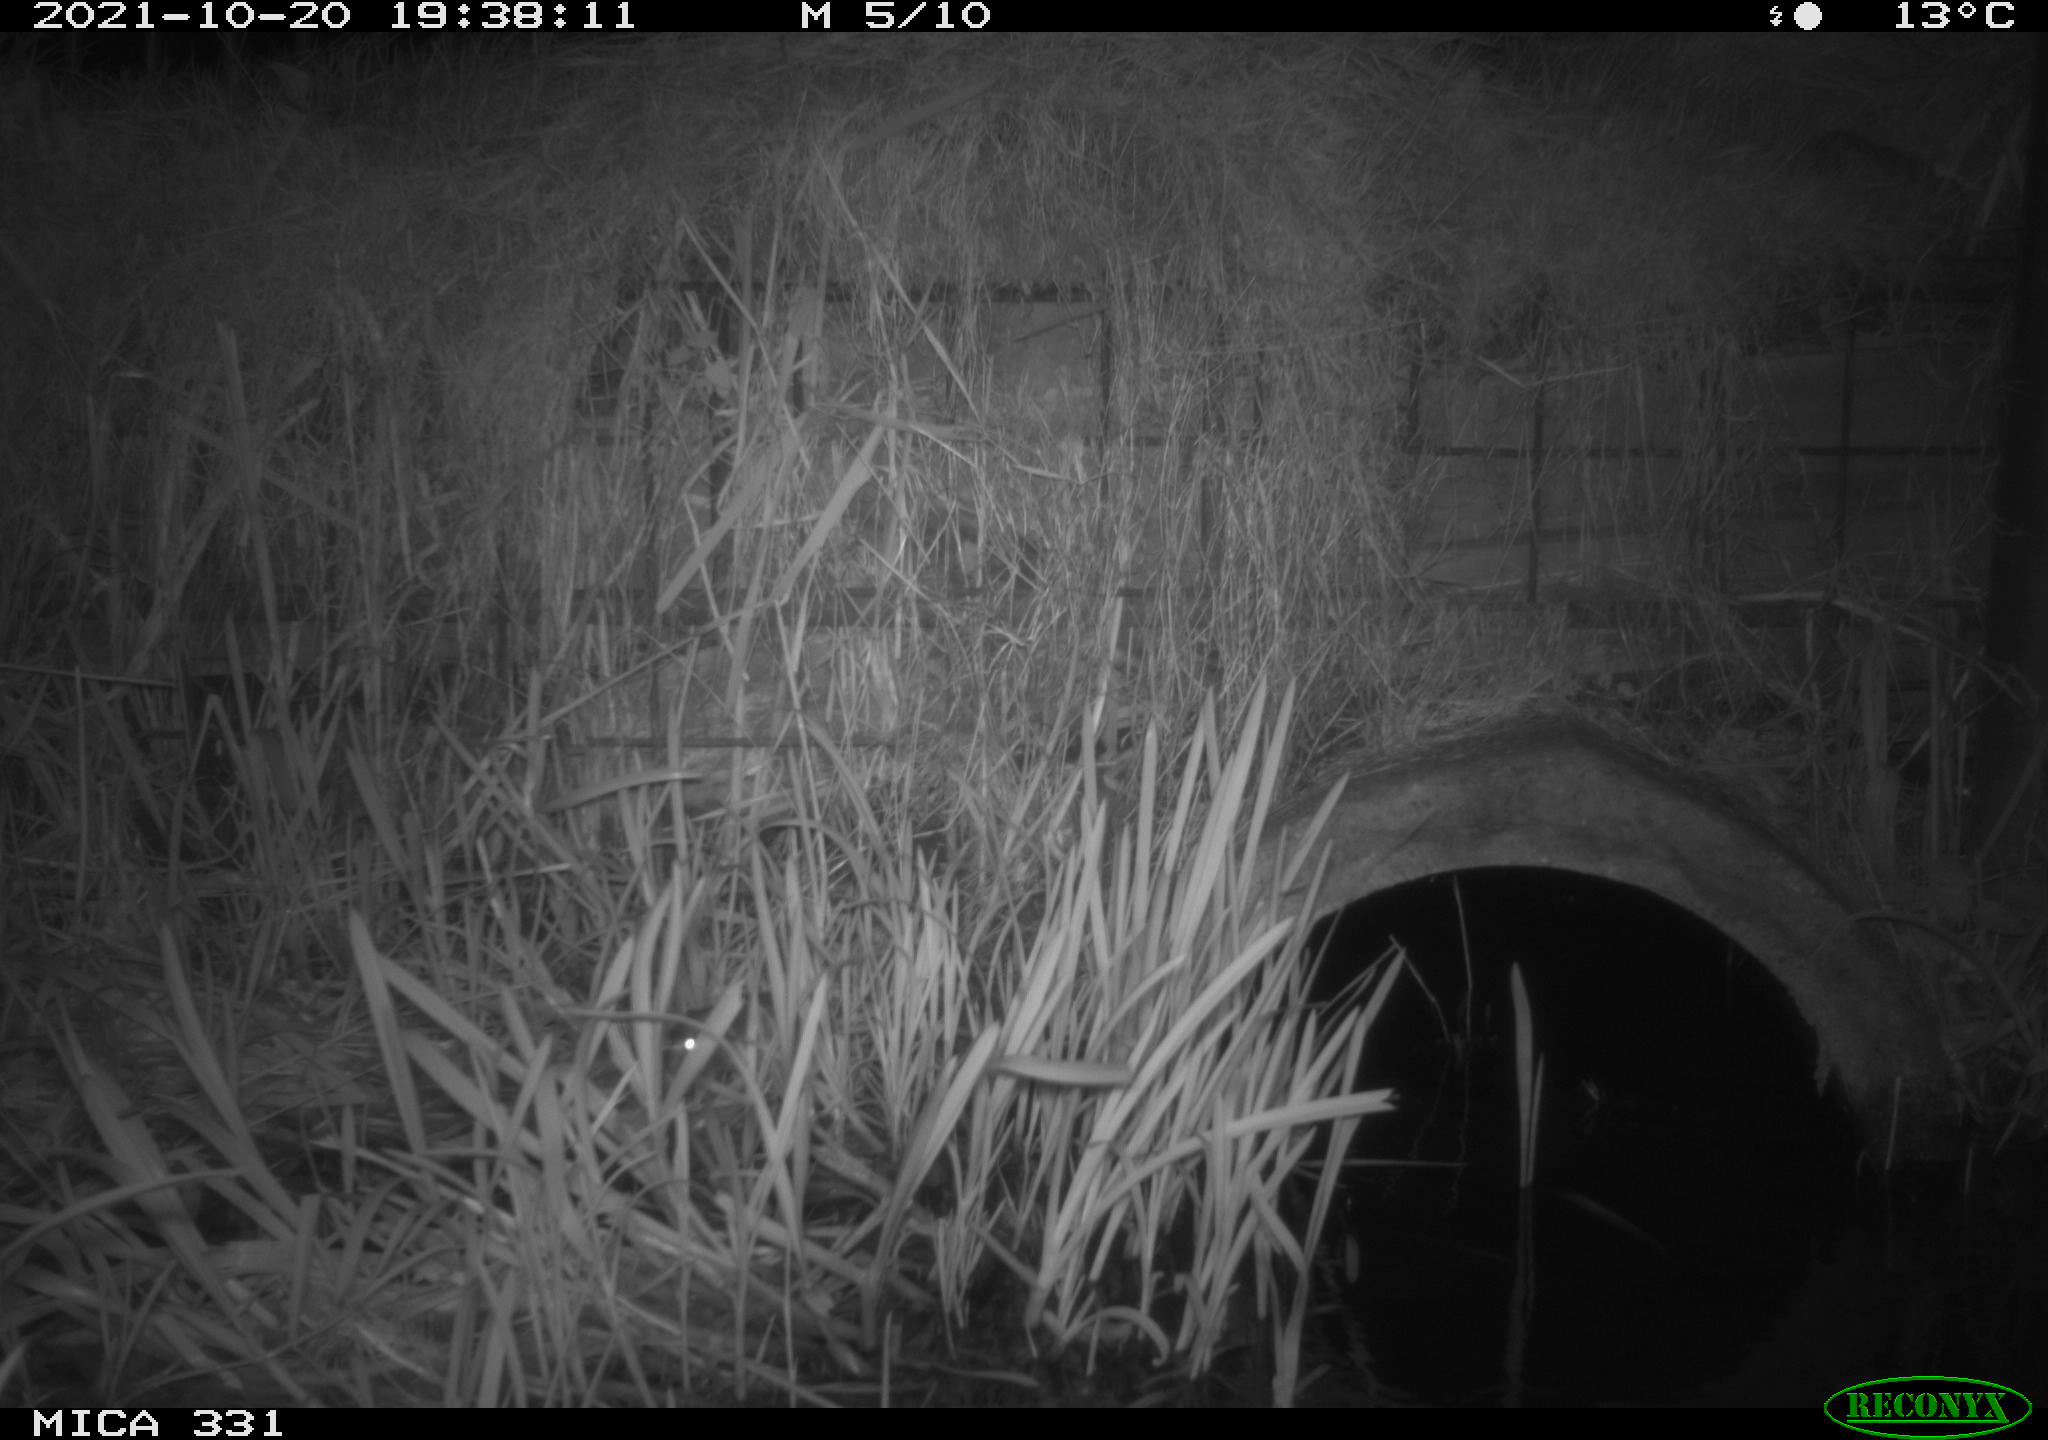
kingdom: Animalia
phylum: Chordata
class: Mammalia
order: Rodentia
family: Muridae
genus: Rattus
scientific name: Rattus norvegicus
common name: Brown rat
